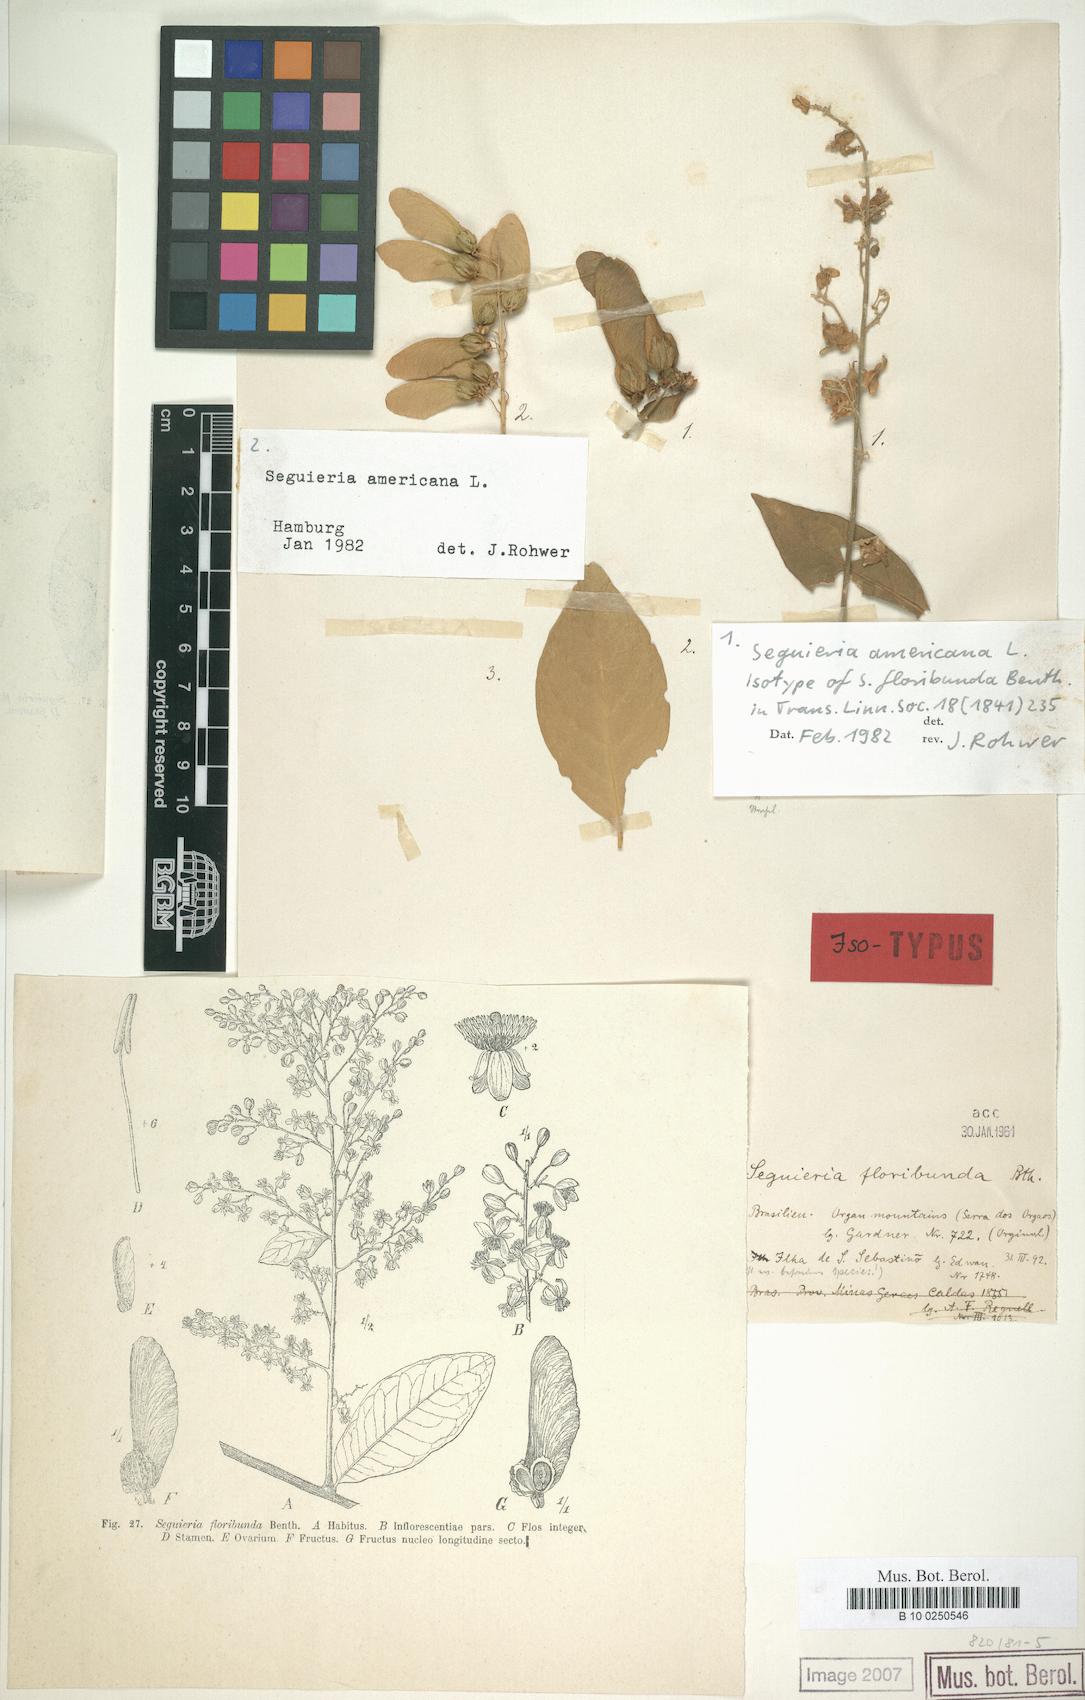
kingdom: Plantae
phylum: Tracheophyta
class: Magnoliopsida
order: Caryophyllales
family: Phytolaccaceae
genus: Seguieria
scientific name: Seguieria americana
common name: American seguieria
